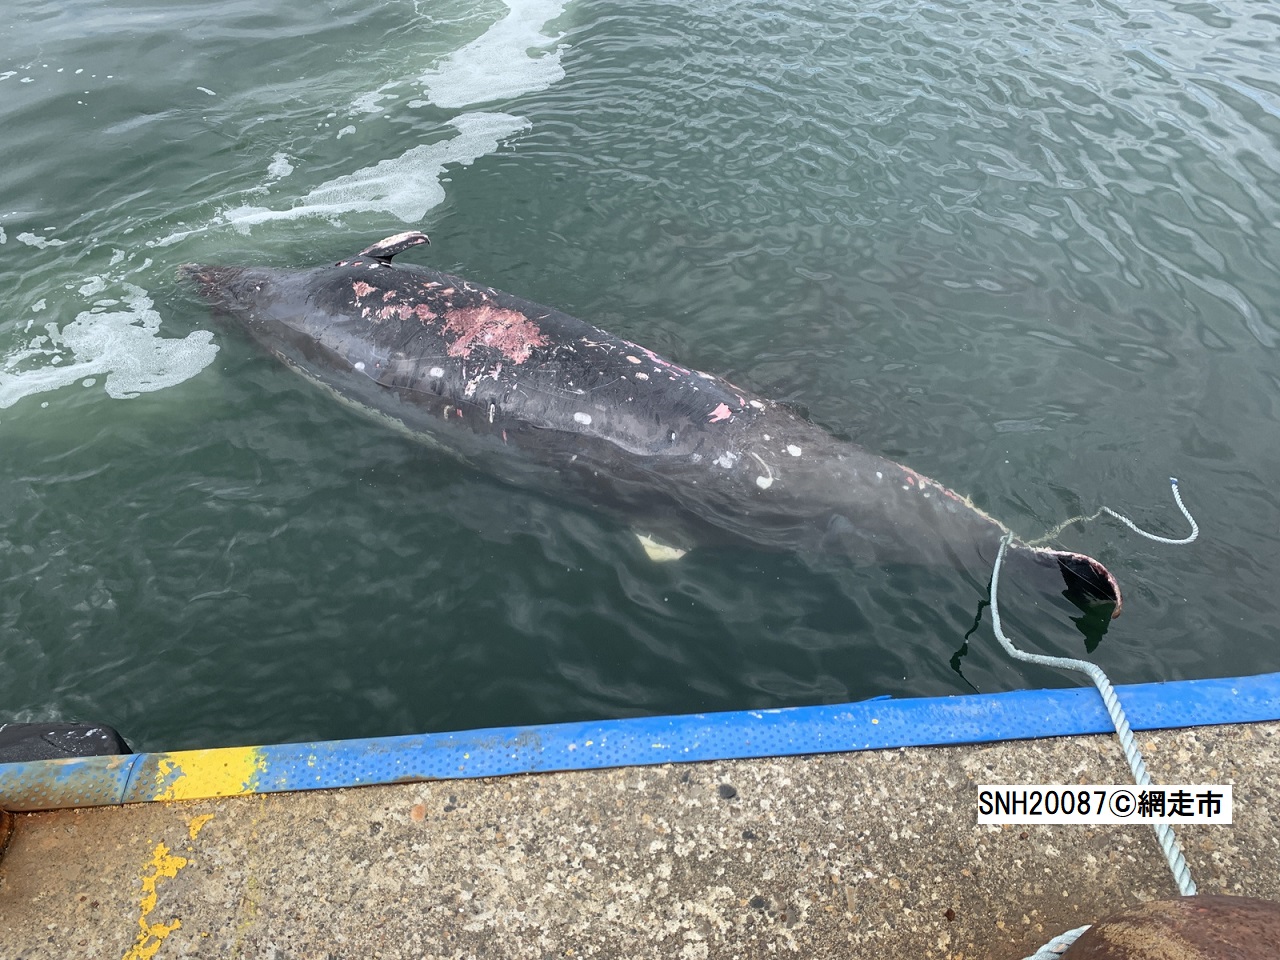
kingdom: Animalia
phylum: Chordata
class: Mammalia
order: Cetacea
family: Hyperoodontidae
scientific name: Hyperoodontidae
